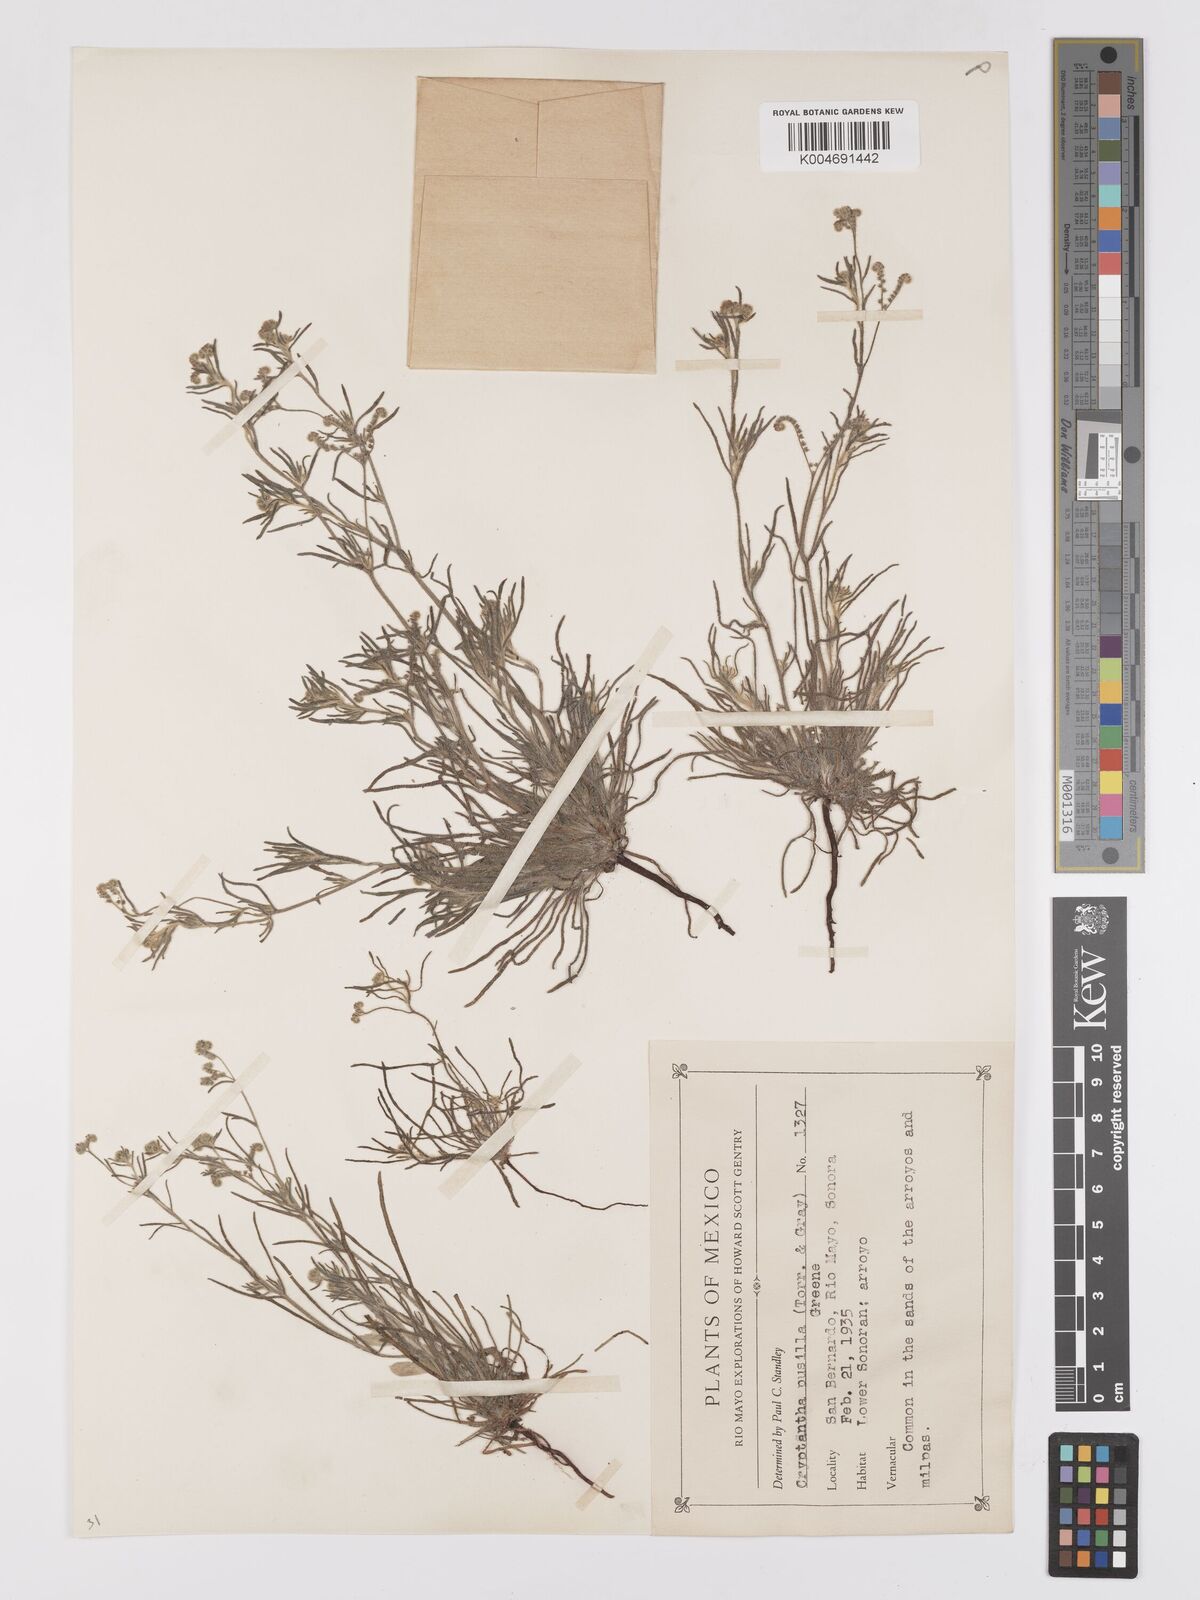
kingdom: Plantae
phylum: Tracheophyta
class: Magnoliopsida
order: Boraginales
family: Boraginaceae
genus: Johnstonella
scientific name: Johnstonella pusilla
